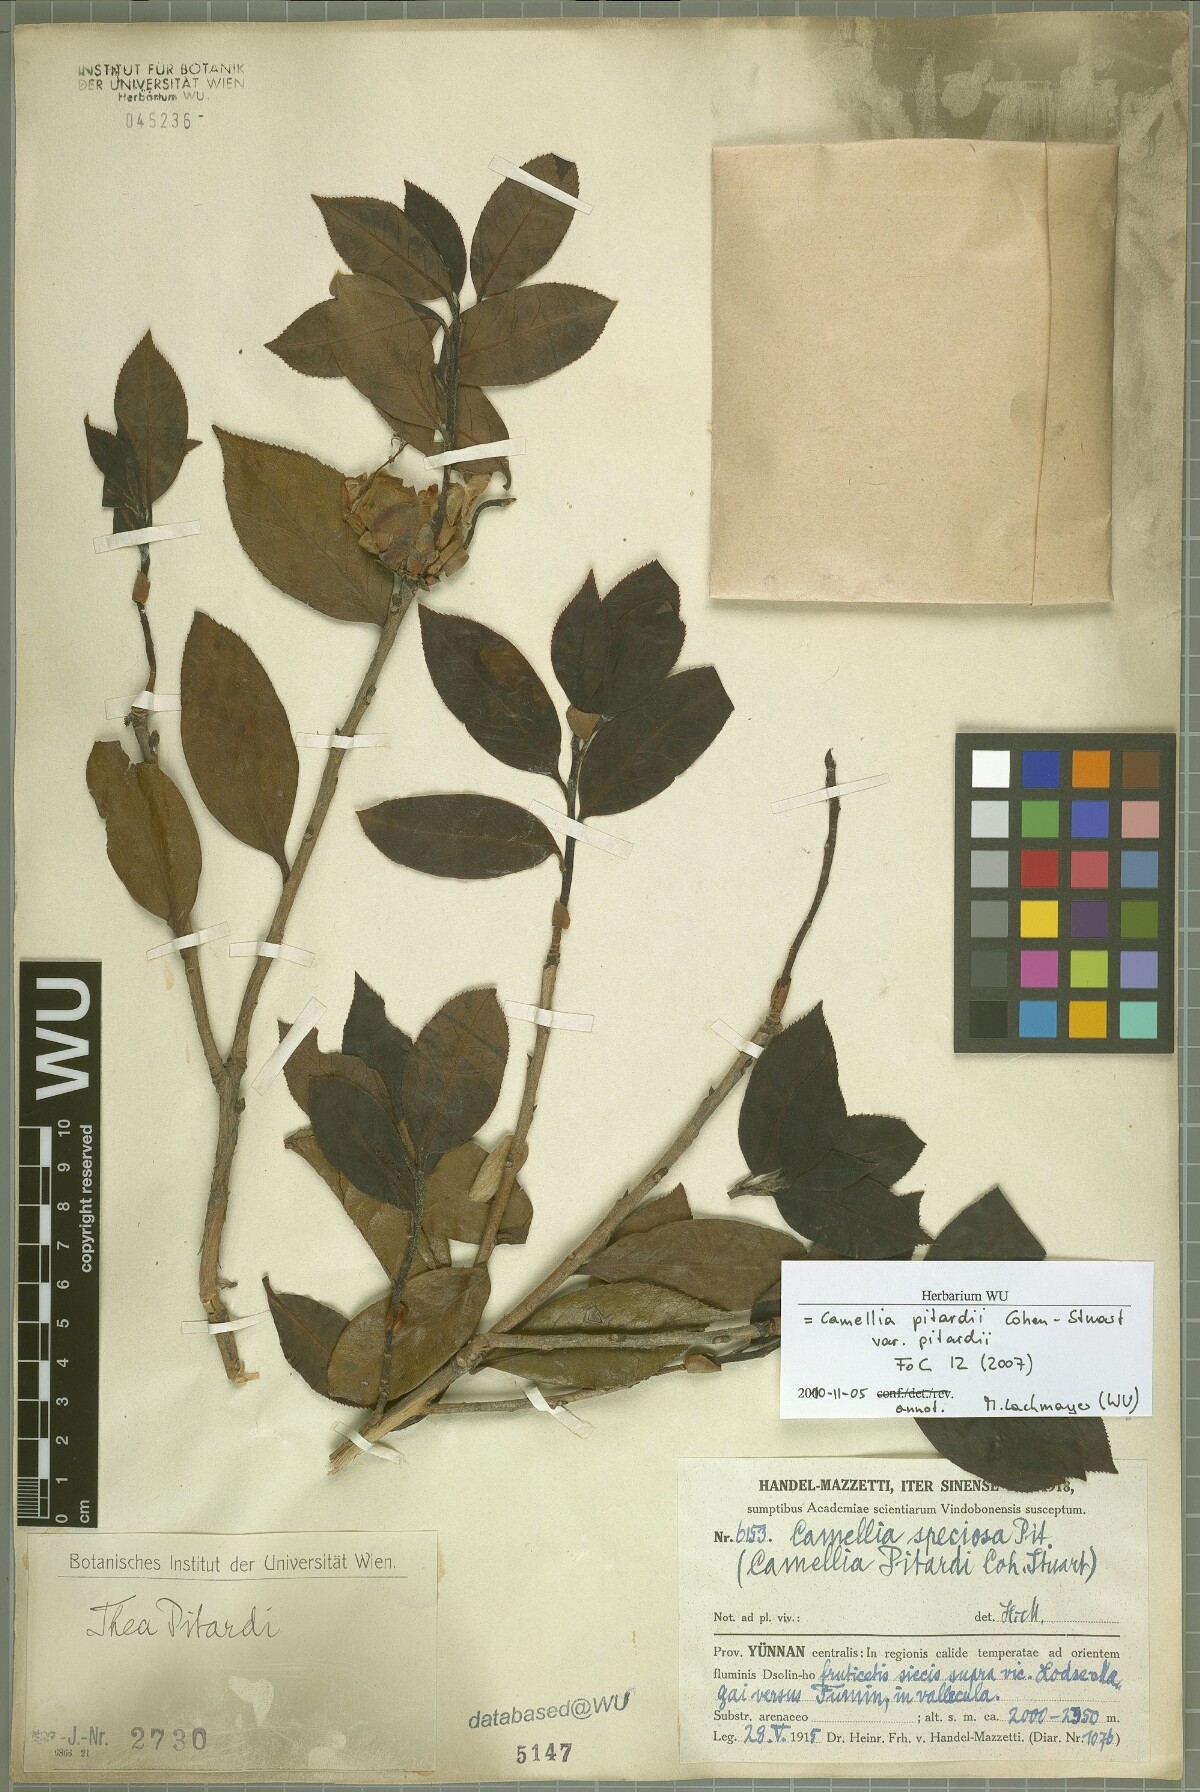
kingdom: Plantae
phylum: Tracheophyta
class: Magnoliopsida
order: Ericales
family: Theaceae
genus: Camellia
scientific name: Camellia pitardii
